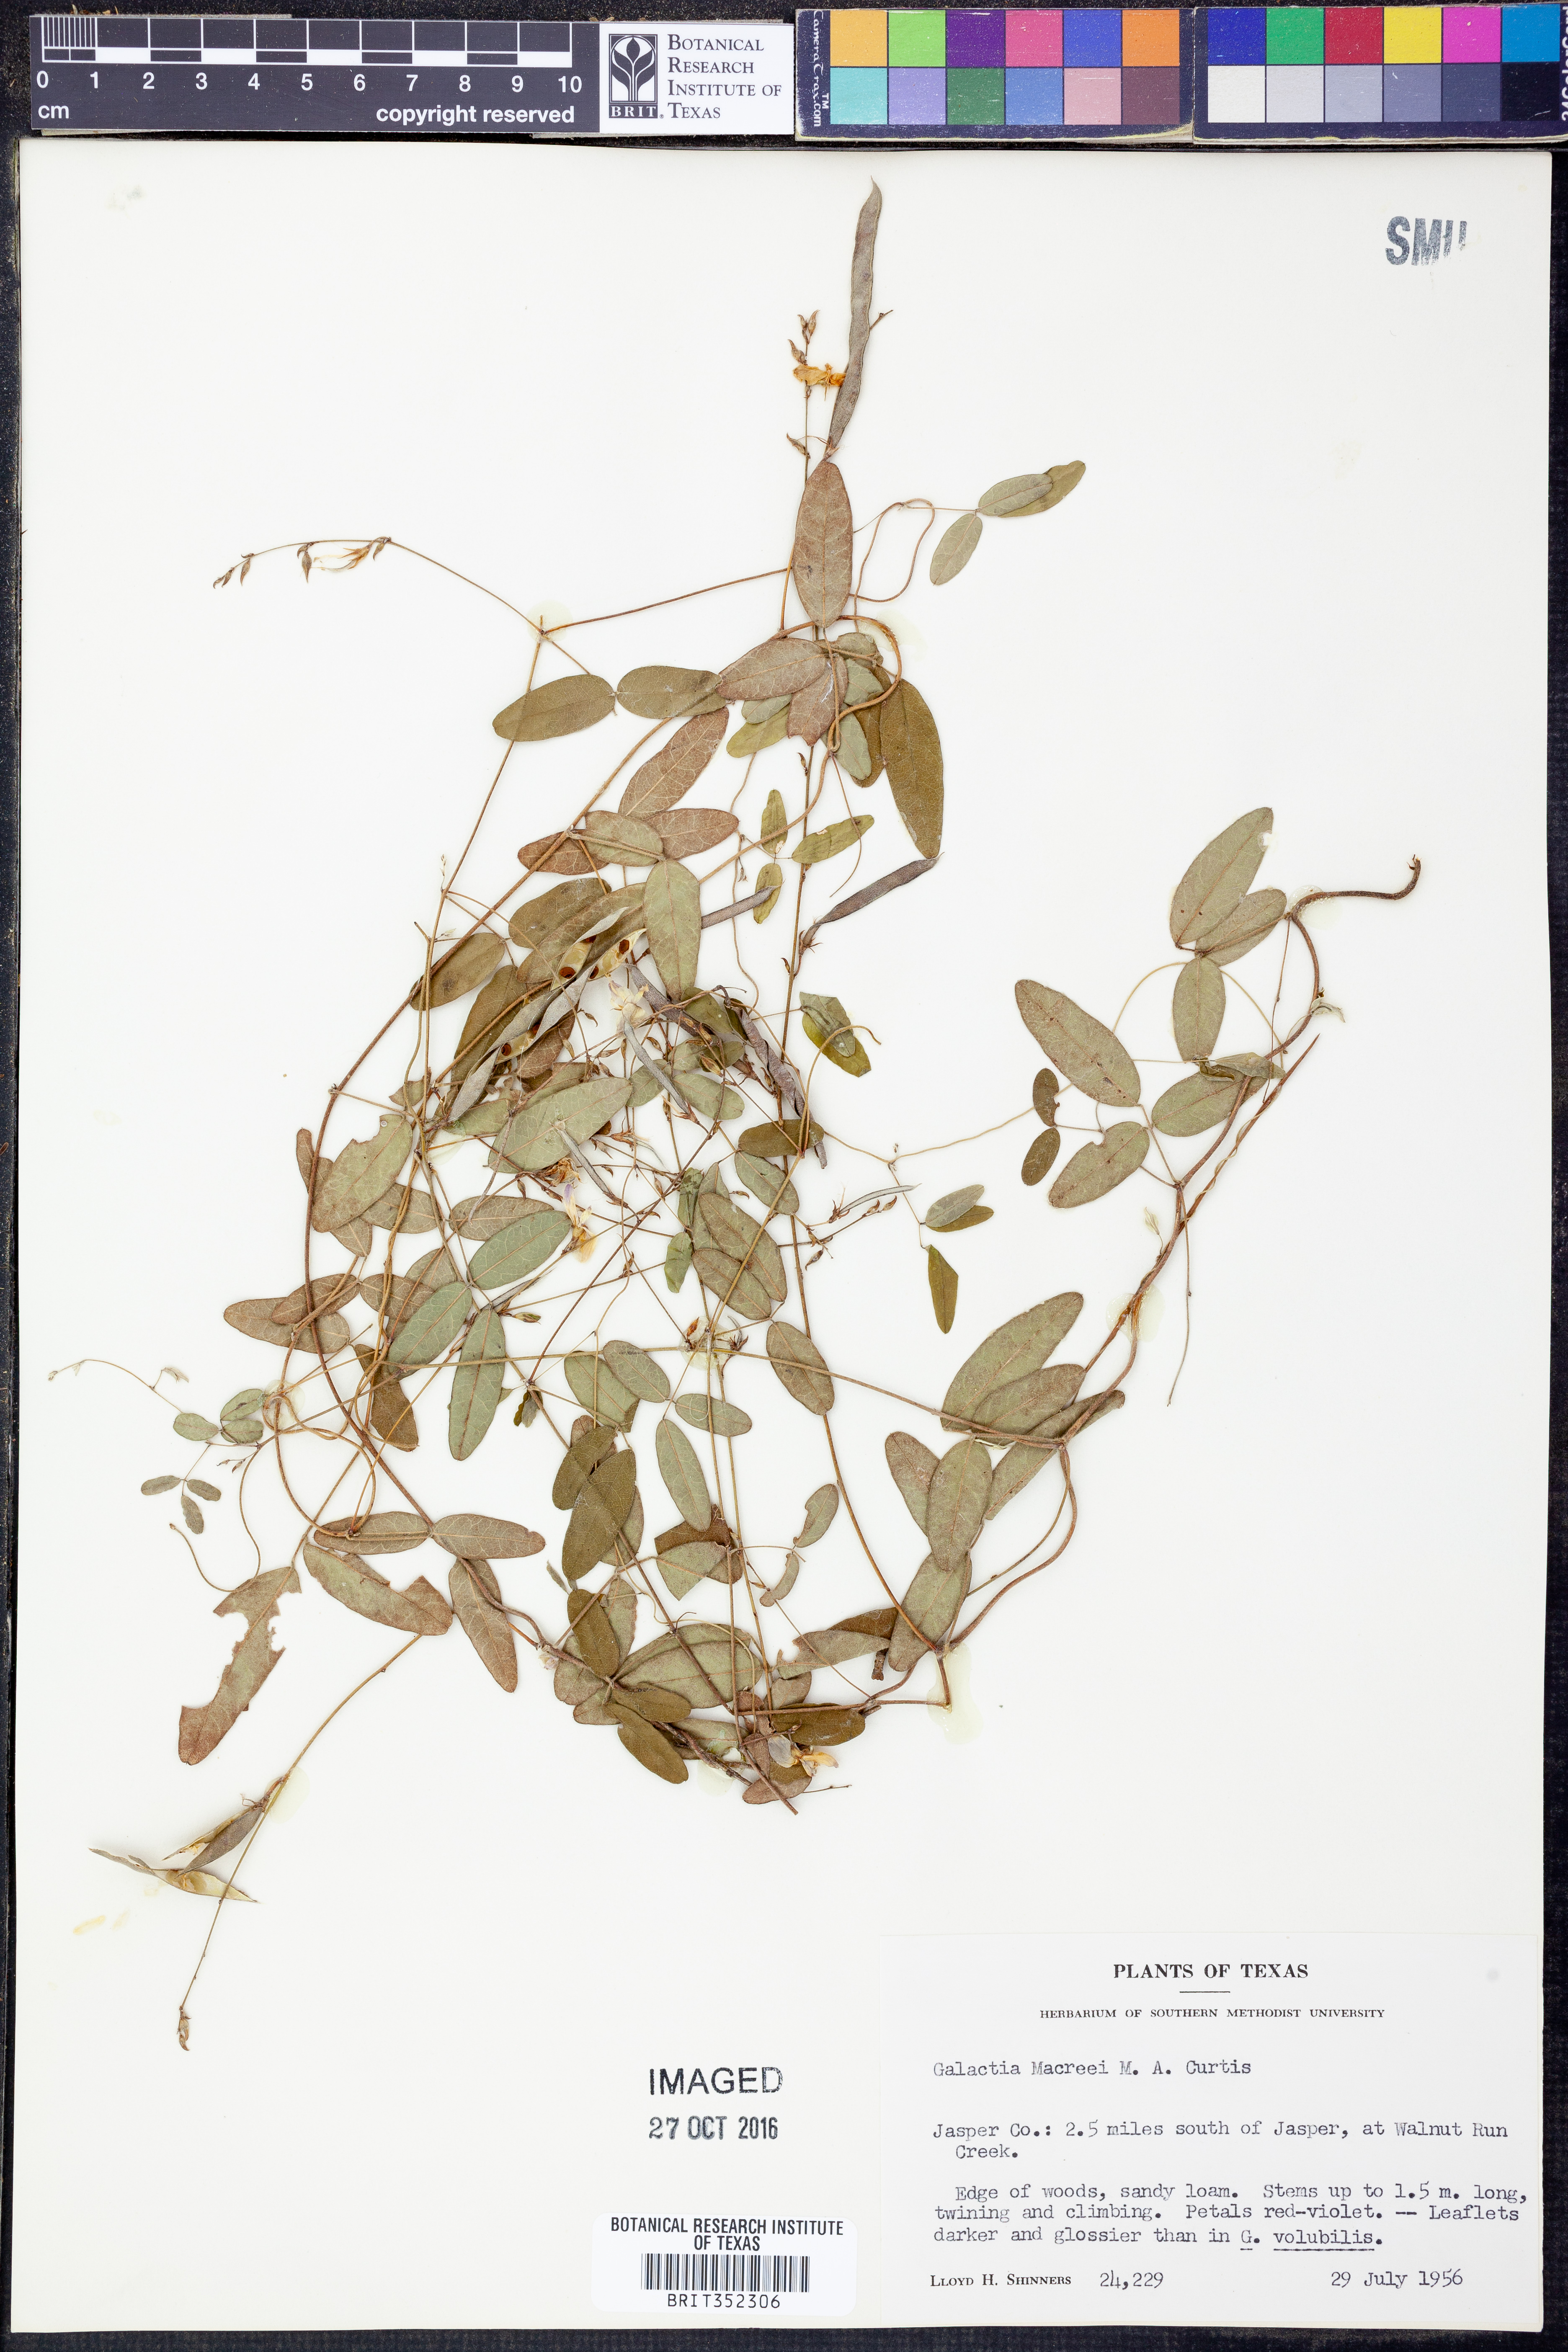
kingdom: Plantae
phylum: Tracheophyta
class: Magnoliopsida
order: Fabales
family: Fabaceae
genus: Galactia
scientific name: Galactia volubilis
